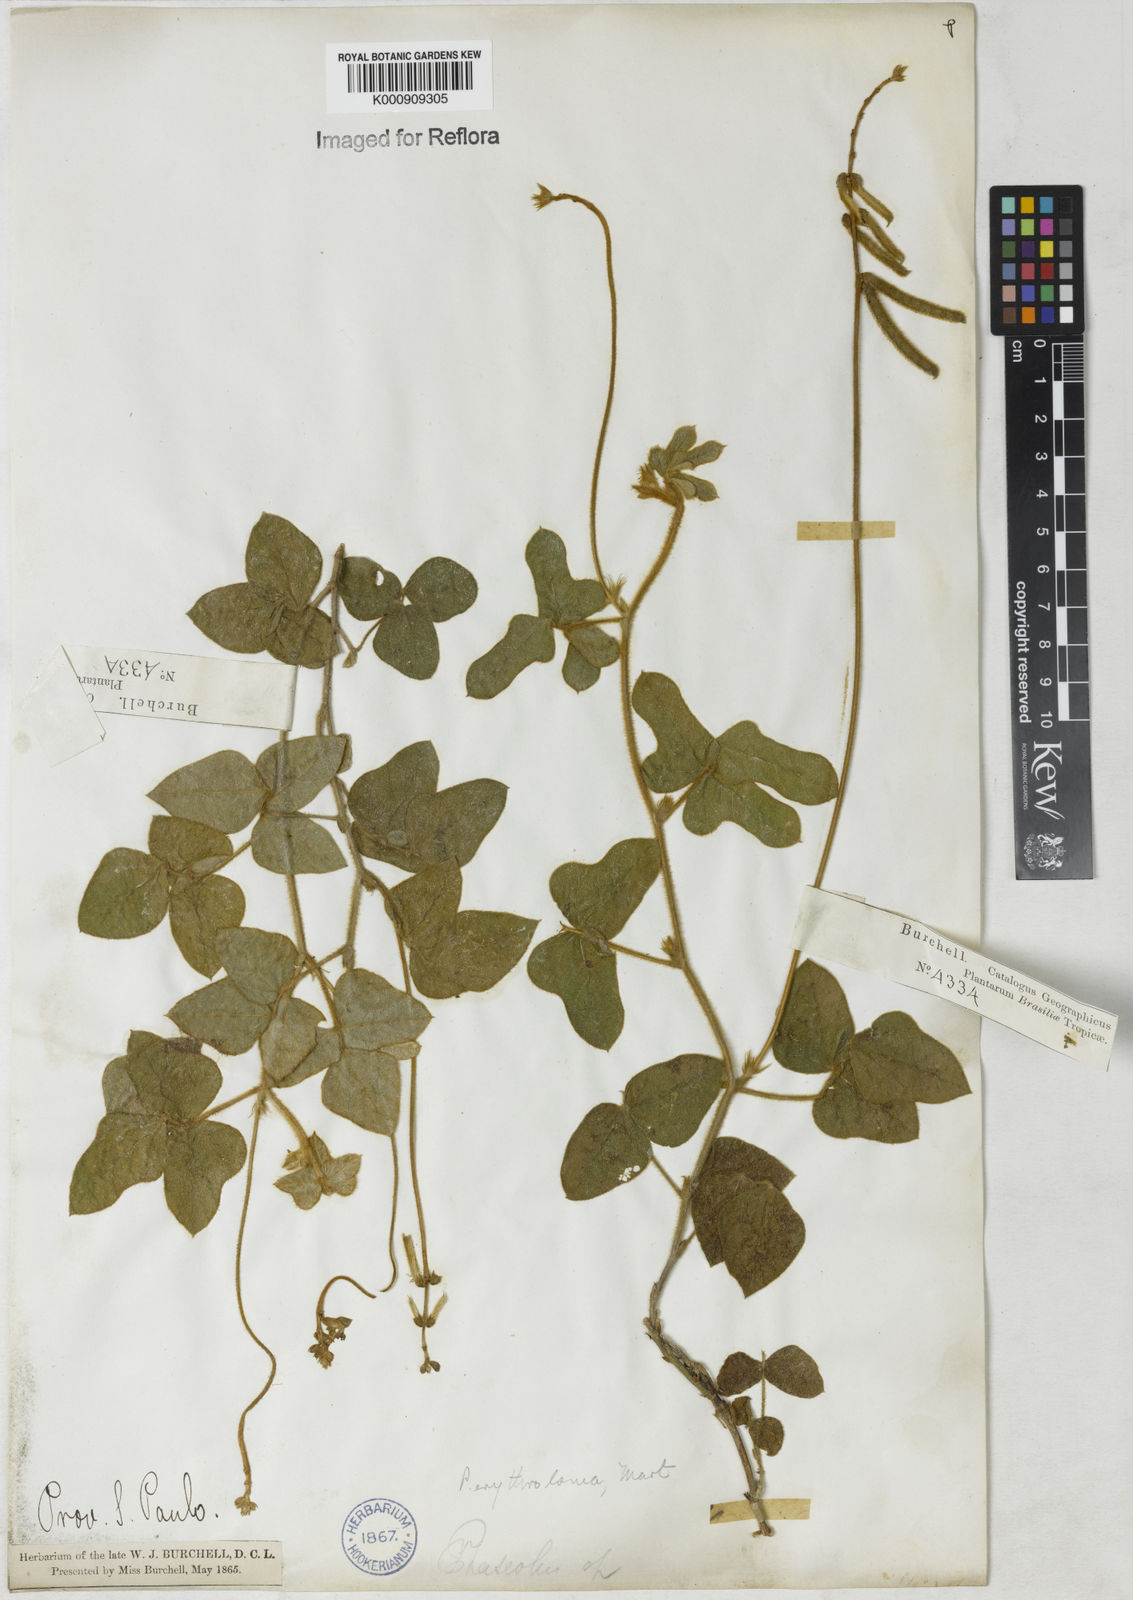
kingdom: Plantae
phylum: Tracheophyta
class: Magnoliopsida
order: Fabales
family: Fabaceae
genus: Macroptilium
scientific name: Macroptilium erythroloma
